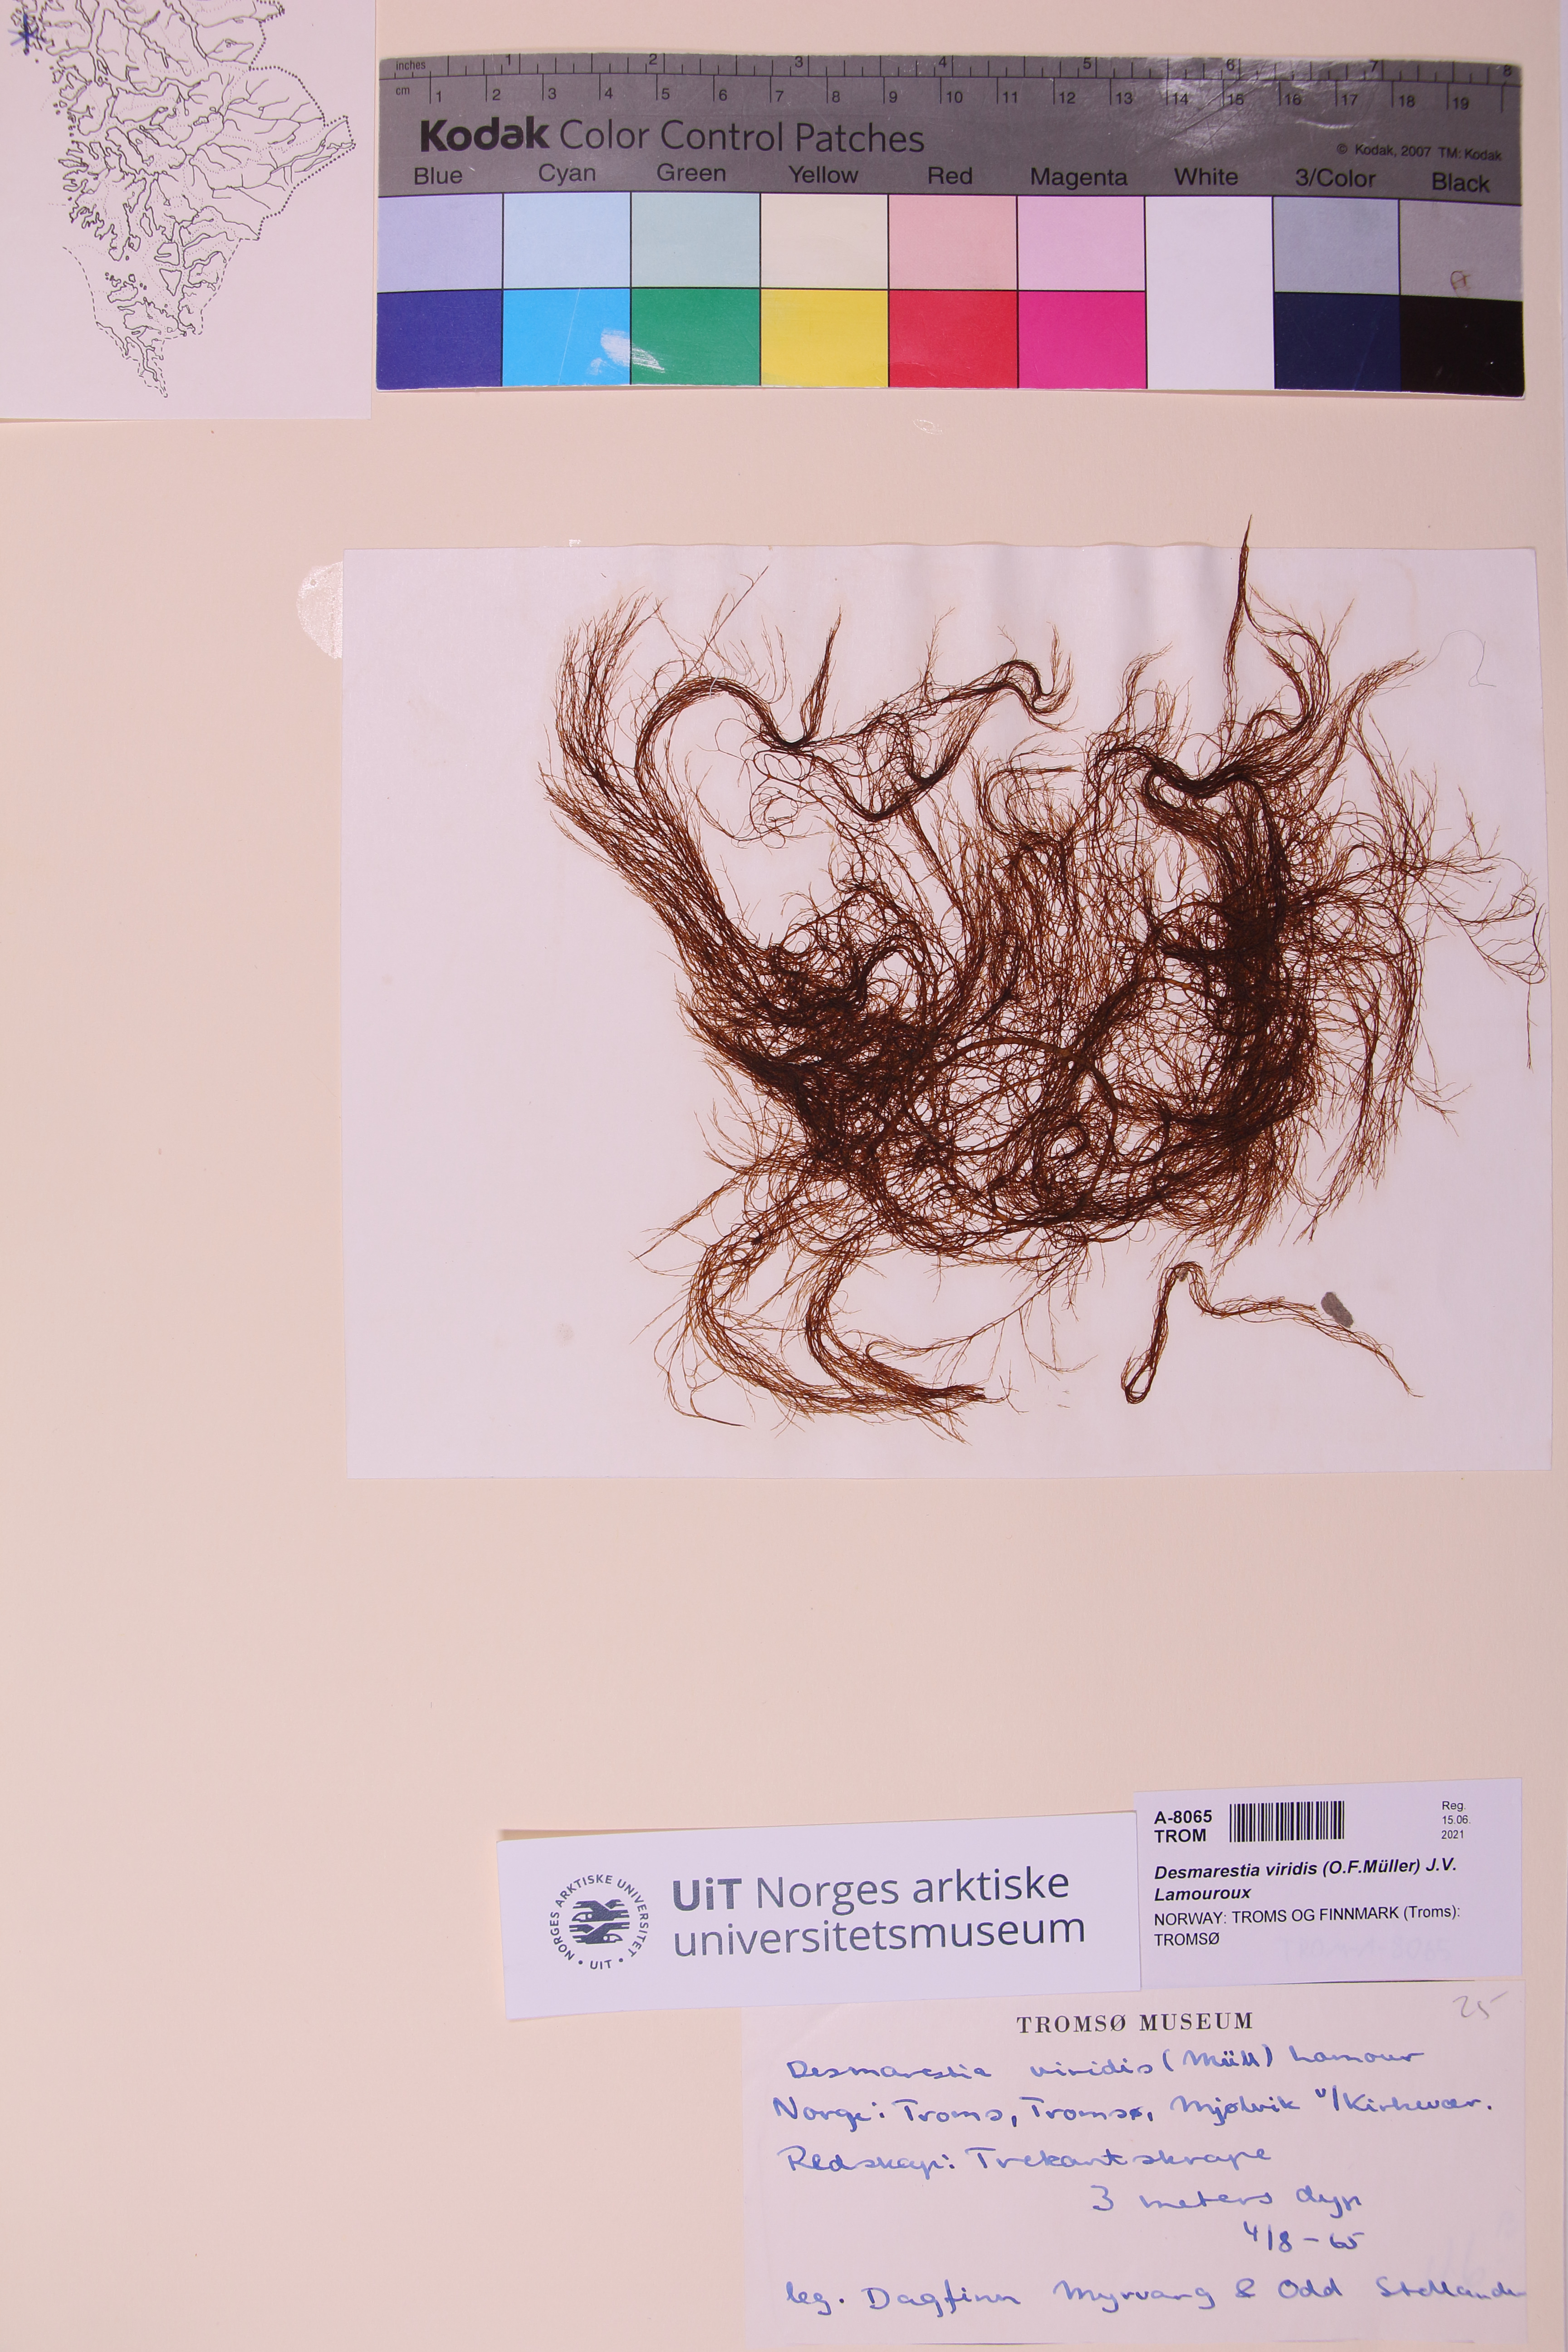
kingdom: Chromista
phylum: Ochrophyta
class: Phaeophyceae
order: Desmarestiales
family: Desmarestiaceae
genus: Desmarestia
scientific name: Desmarestia viridis
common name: Stringy acid kelp
